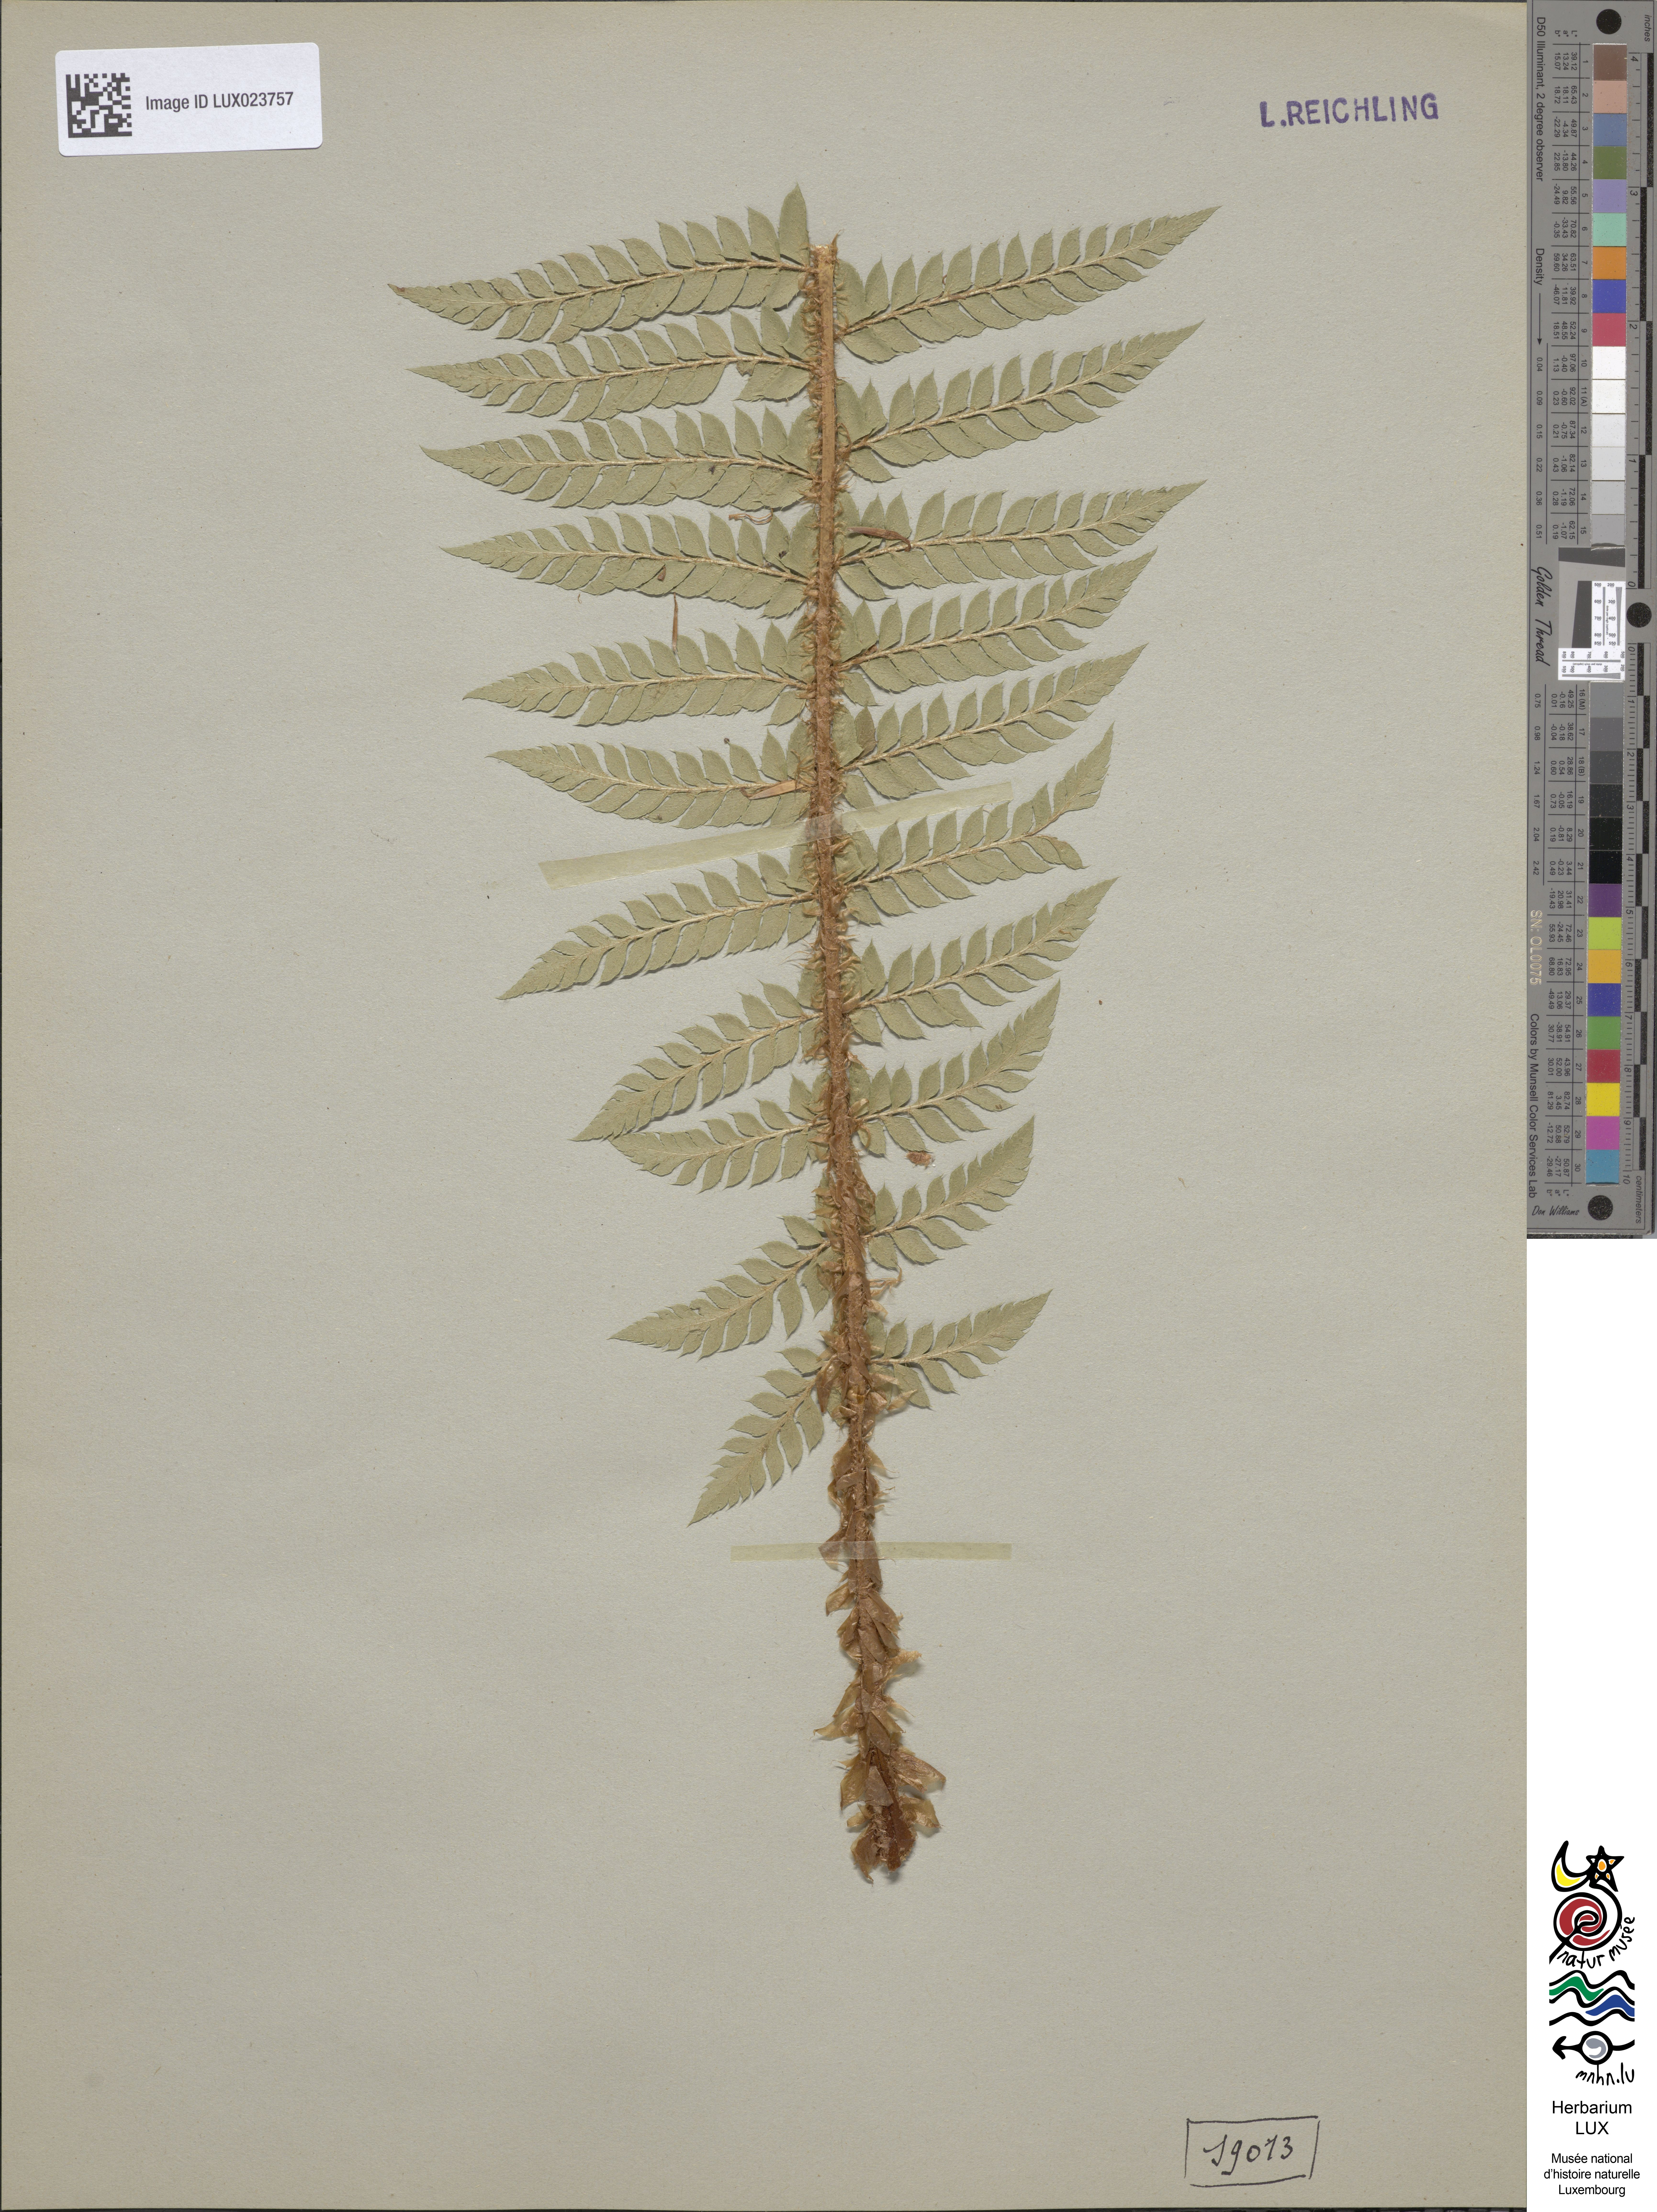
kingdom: Plantae
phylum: Tracheophyta
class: Polypodiopsida
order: Polypodiales
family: Dryopteridaceae
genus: Polystichum
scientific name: Polystichum
